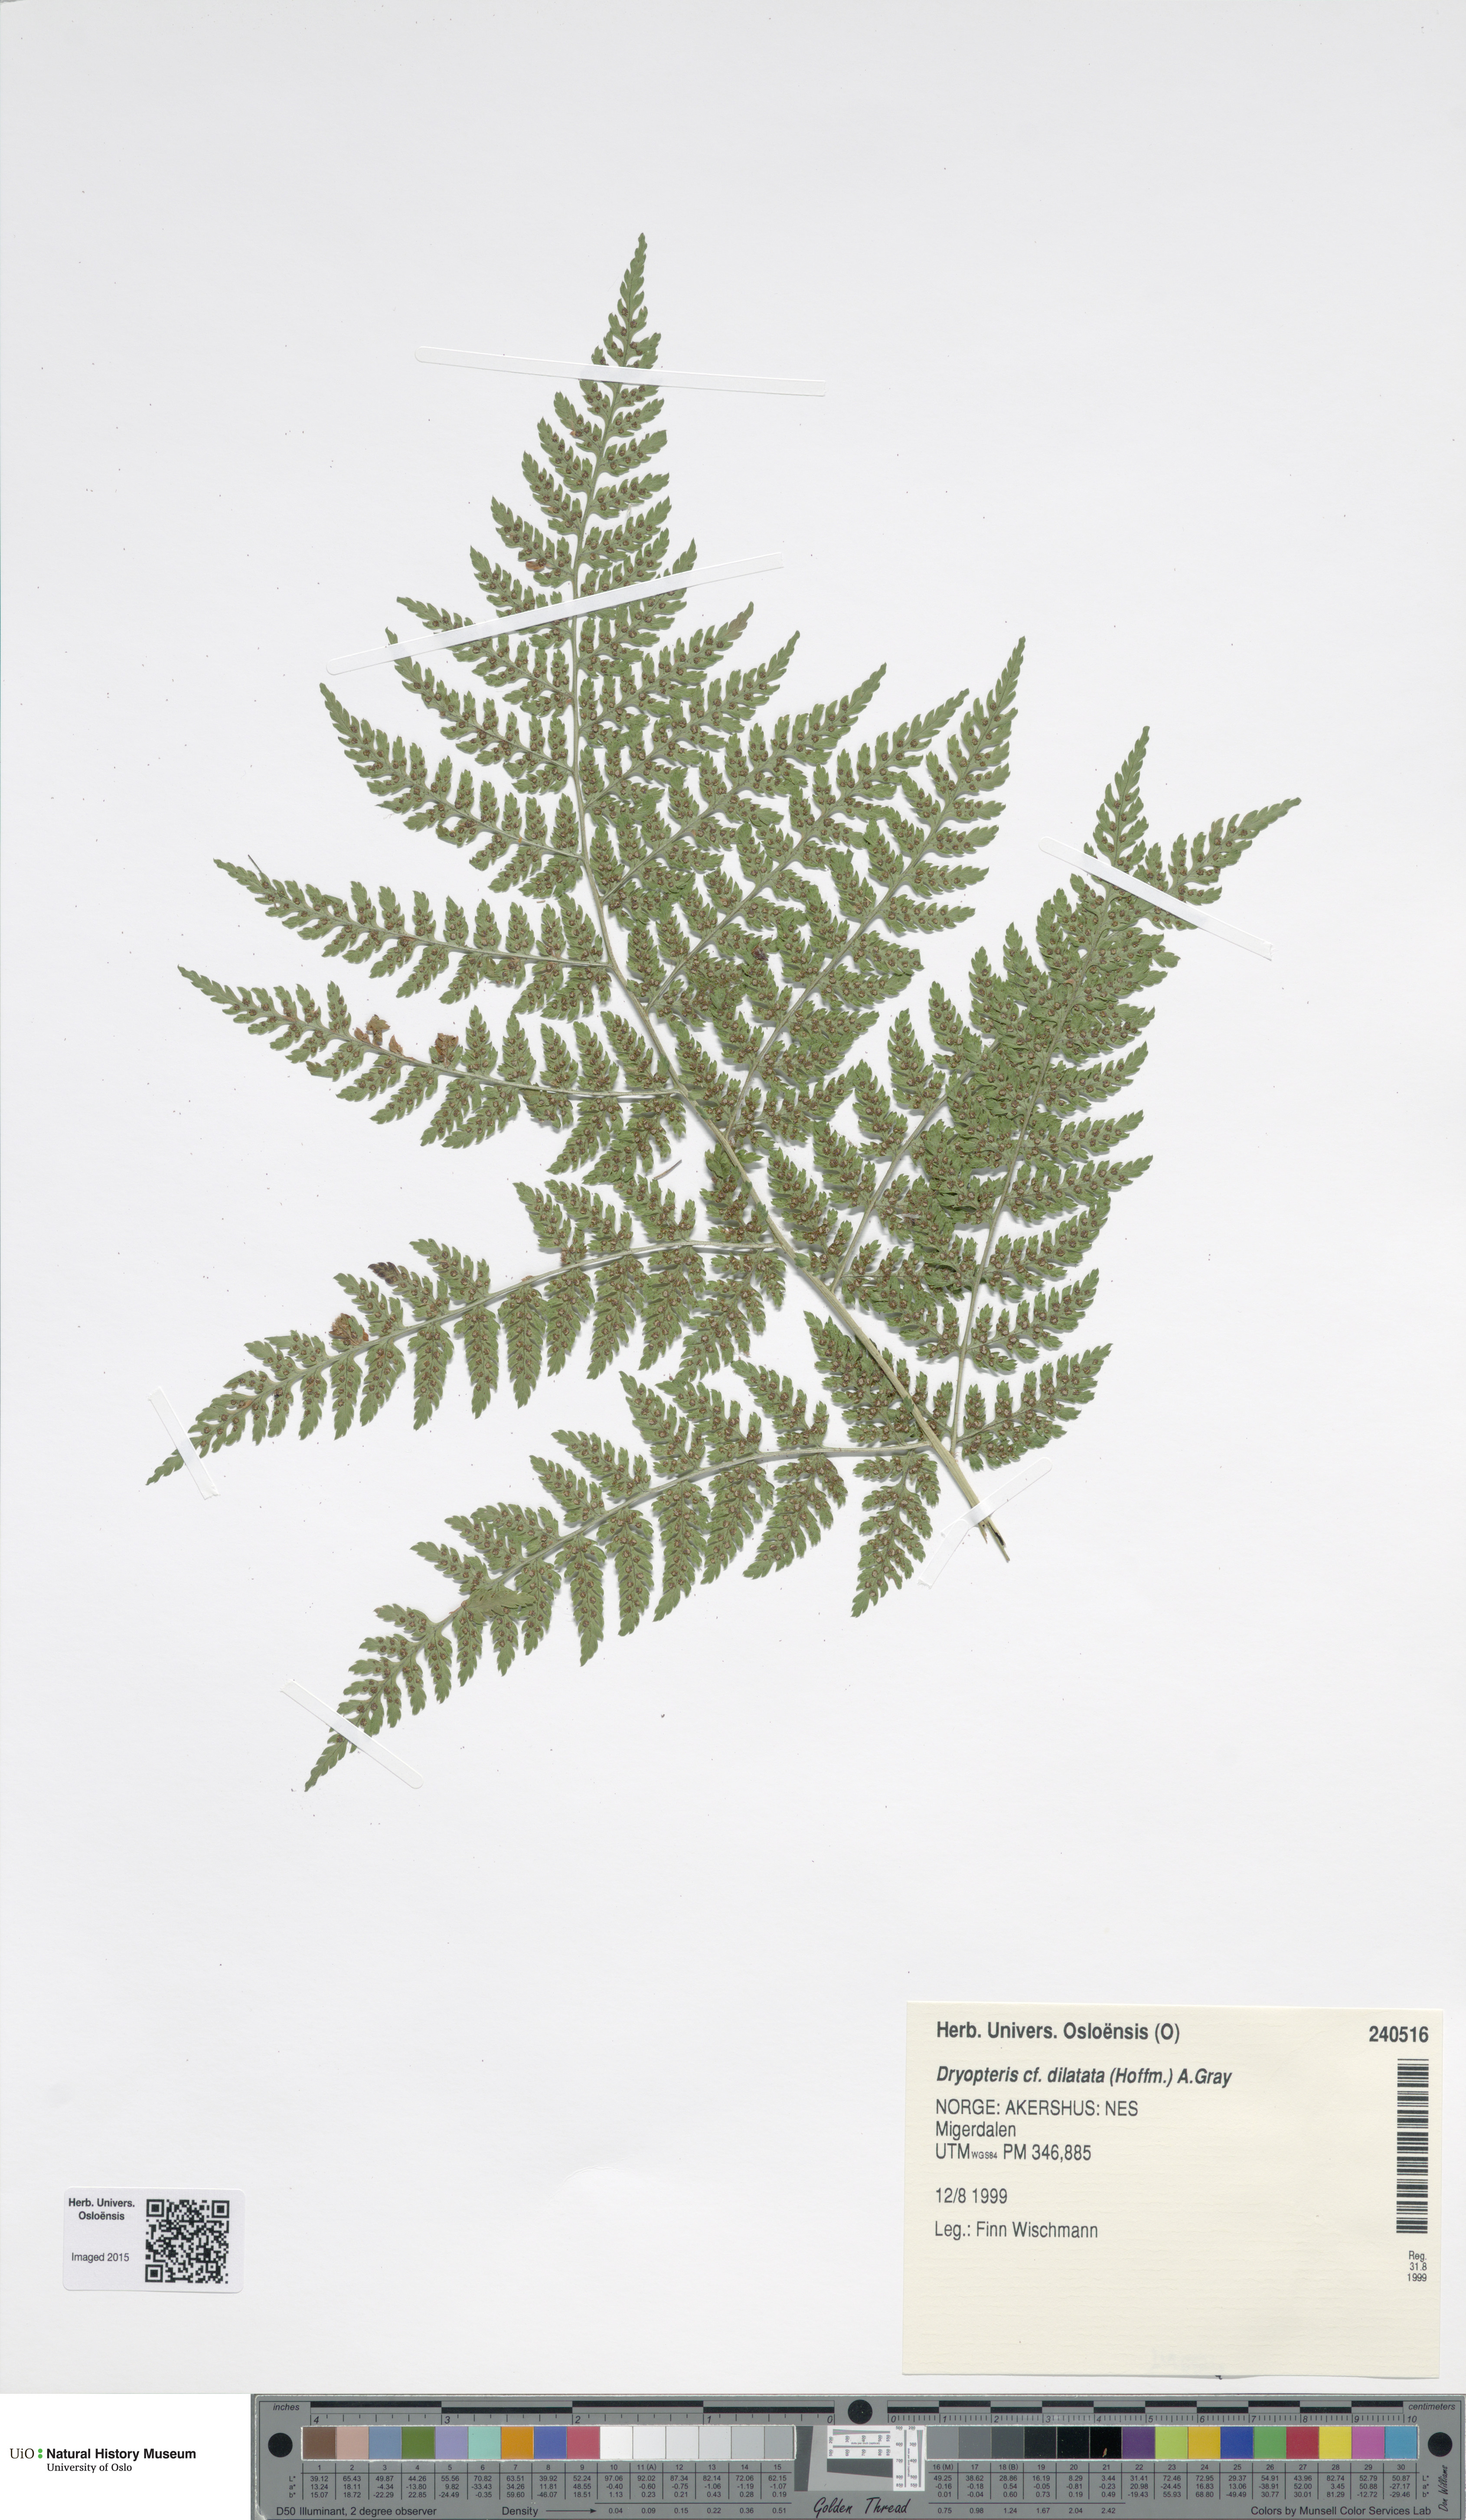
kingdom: Plantae
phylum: Tracheophyta
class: Polypodiopsida
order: Polypodiales
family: Dryopteridaceae
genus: Dryopteris
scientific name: Dryopteris dilatata
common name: Broad buckler-fern
